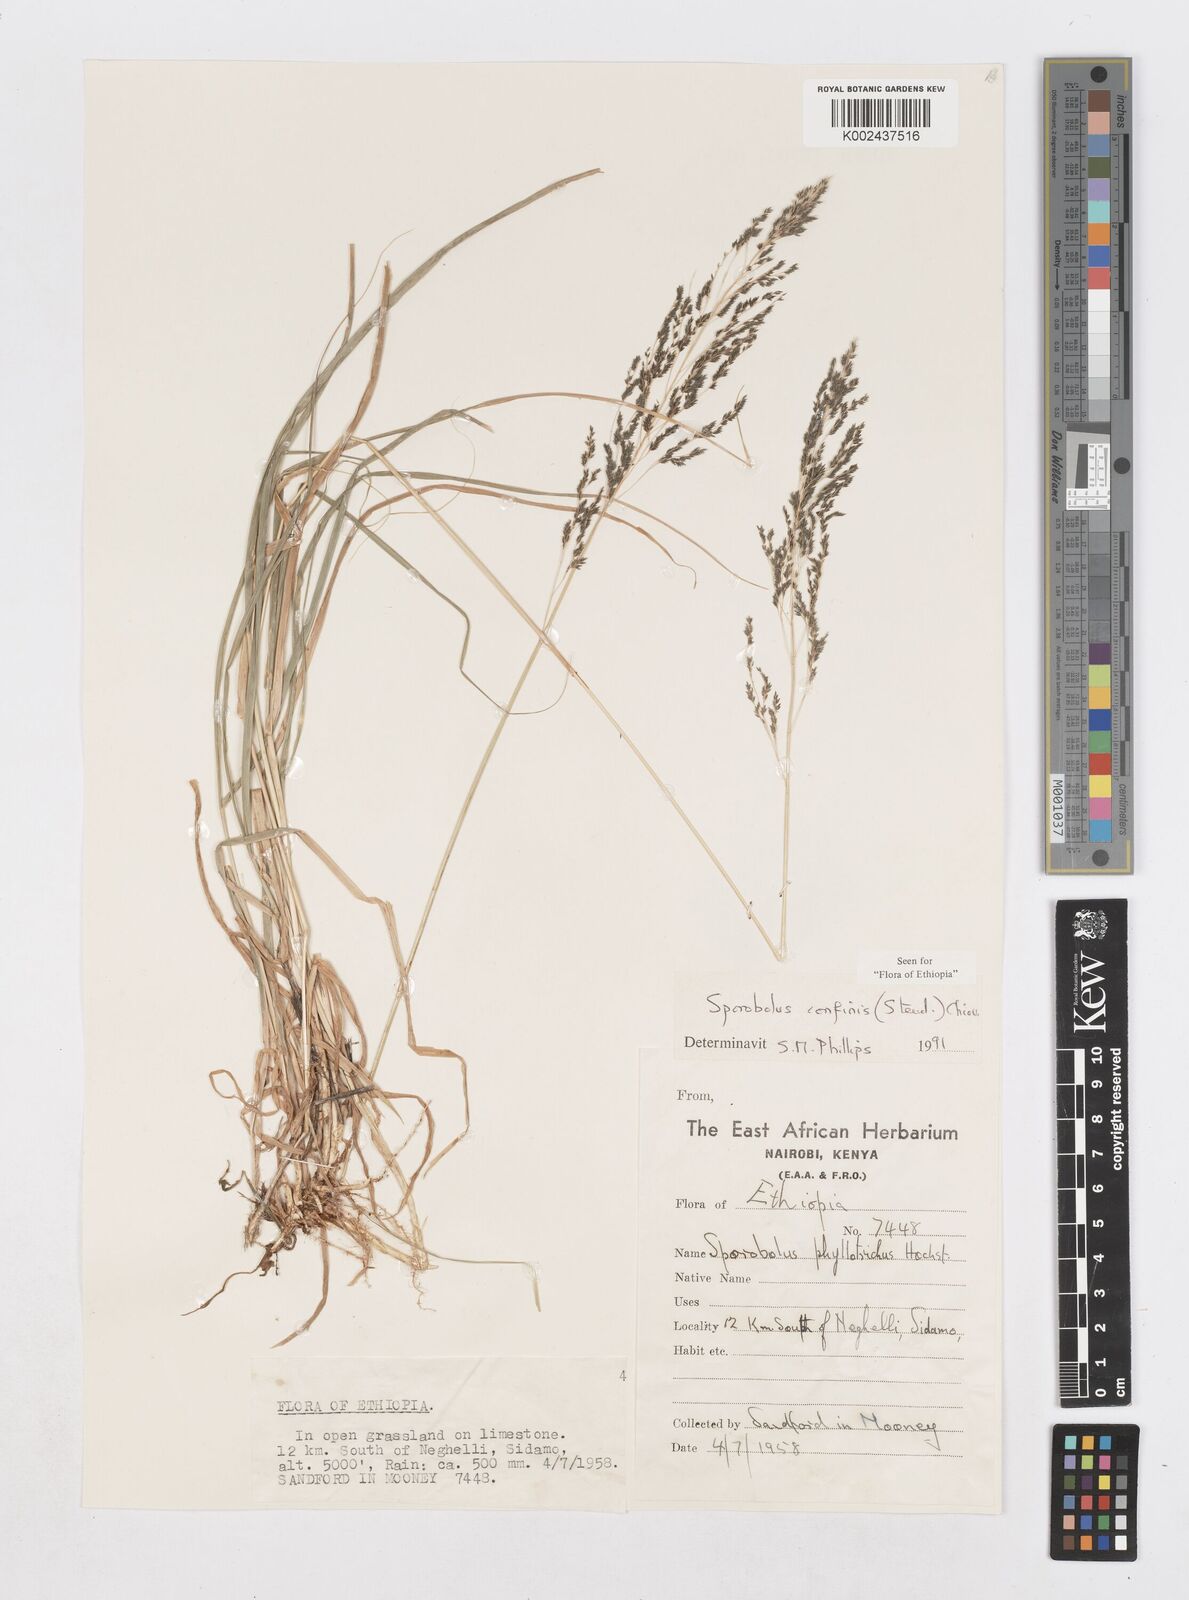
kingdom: Plantae
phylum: Tracheophyta
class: Liliopsida
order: Poales
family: Poaceae
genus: Sporobolus
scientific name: Sporobolus confinis
